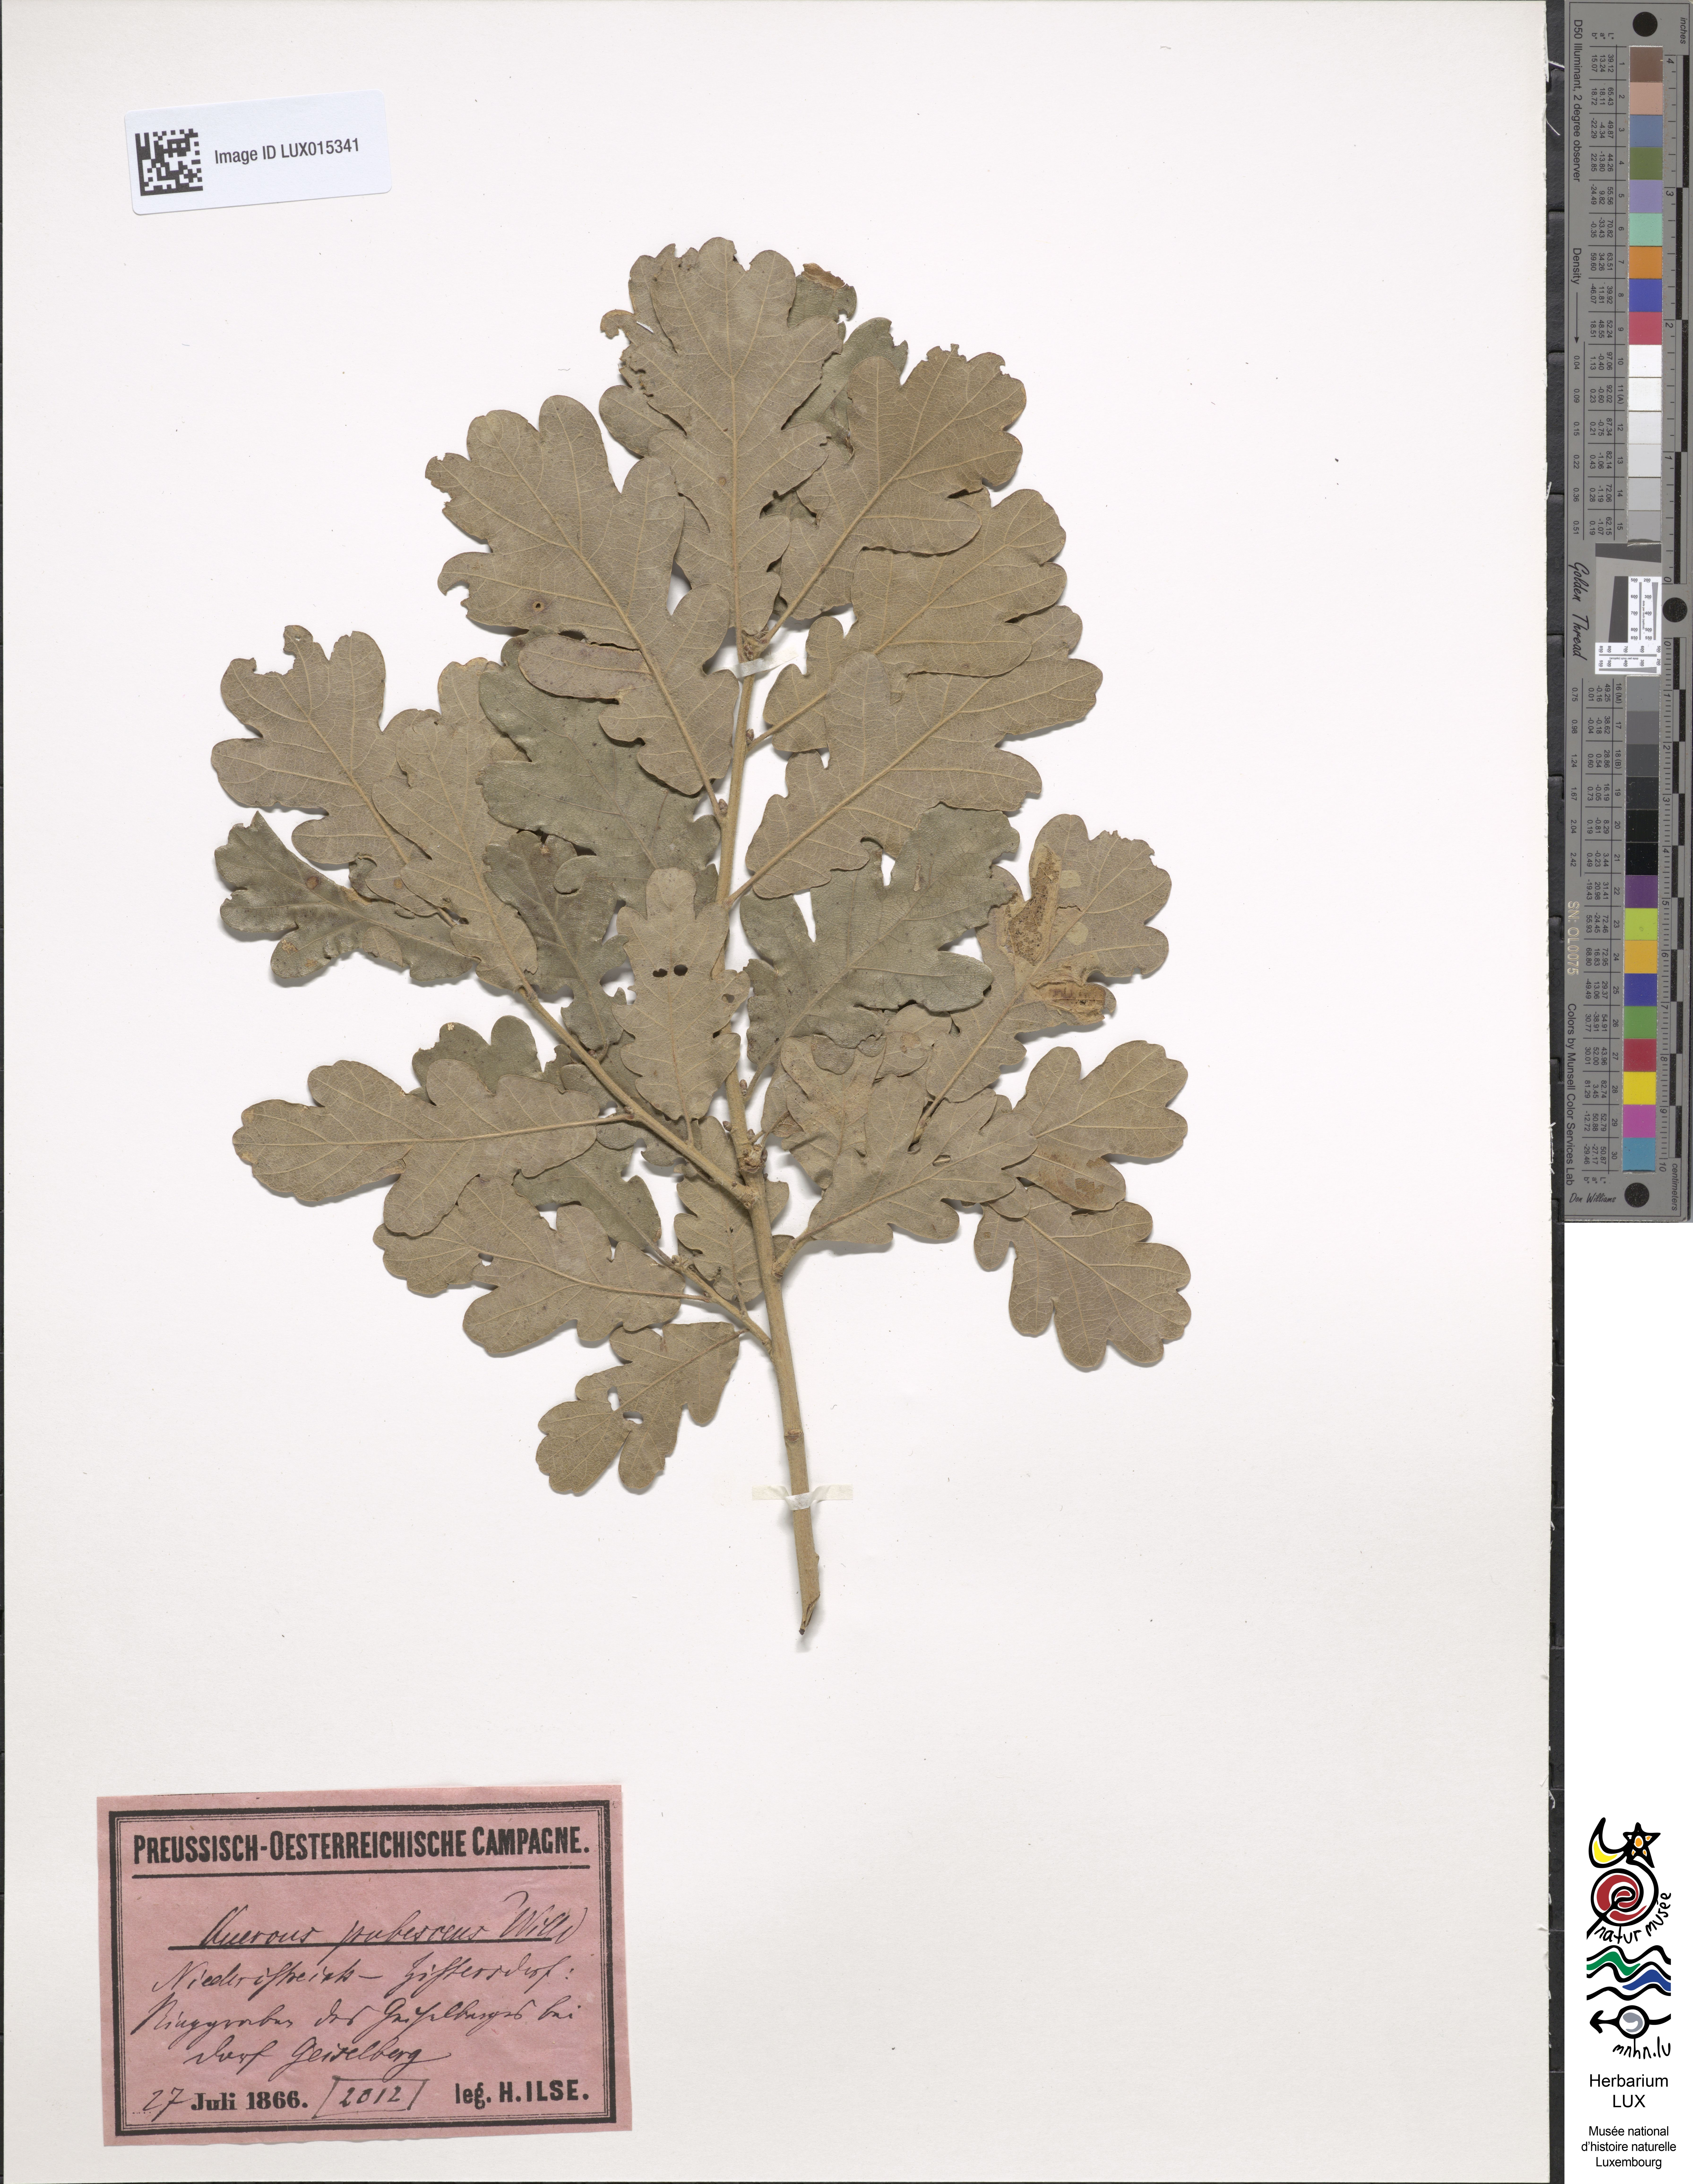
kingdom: Plantae
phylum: Tracheophyta
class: Magnoliopsida
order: Fagales
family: Fagaceae
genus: Quercus
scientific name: Quercus pubescens
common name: Downy oak
